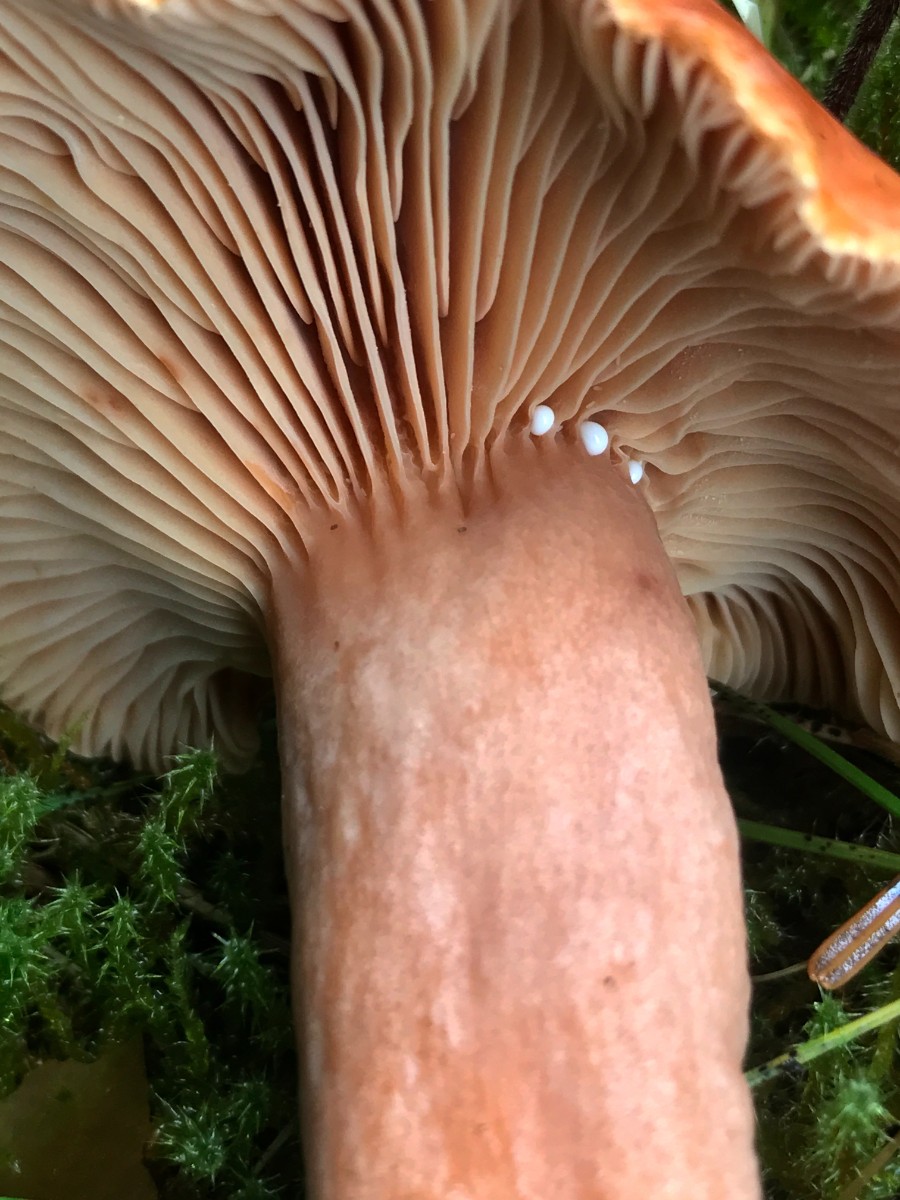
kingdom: Fungi
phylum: Basidiomycota
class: Agaricomycetes
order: Russulales
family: Russulaceae
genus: Lactarius
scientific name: Lactarius fulvissimus
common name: ræve-mælkehat
